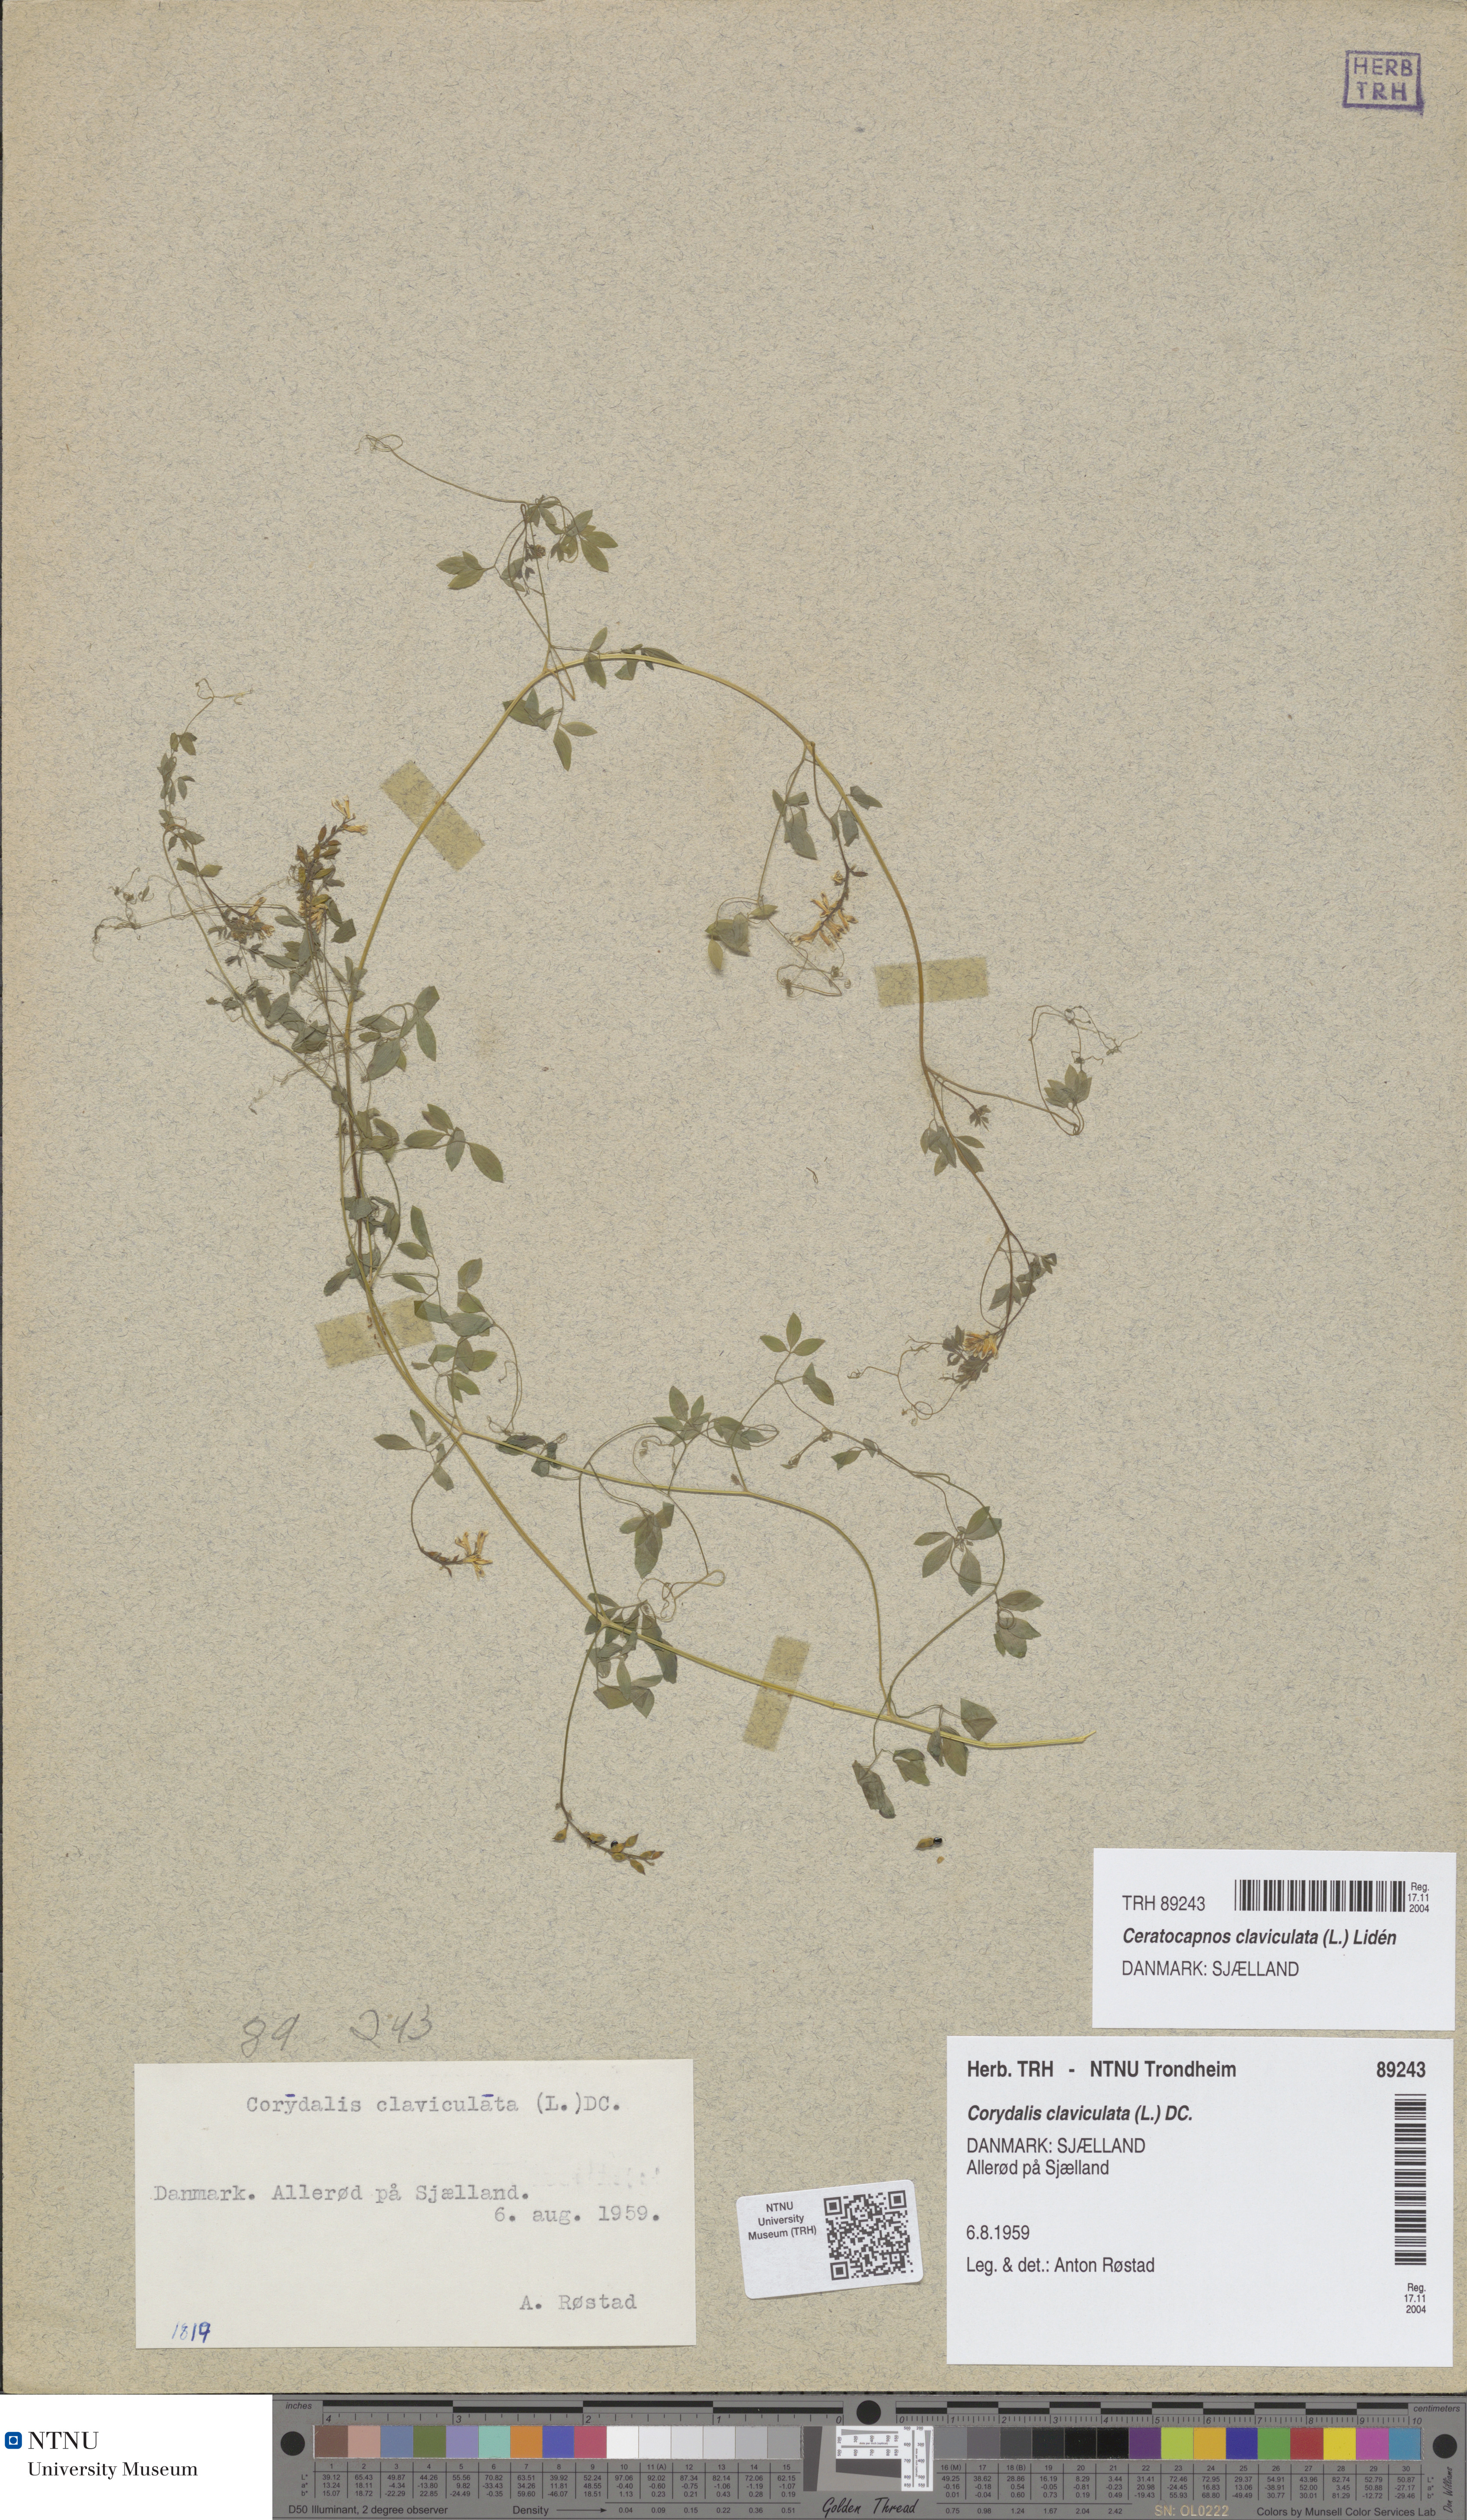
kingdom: Plantae
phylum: Tracheophyta
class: Magnoliopsida
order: Ranunculales
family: Papaveraceae
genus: Ceratocapnos
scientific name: Ceratocapnos claviculata
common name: Climbing corydalis
